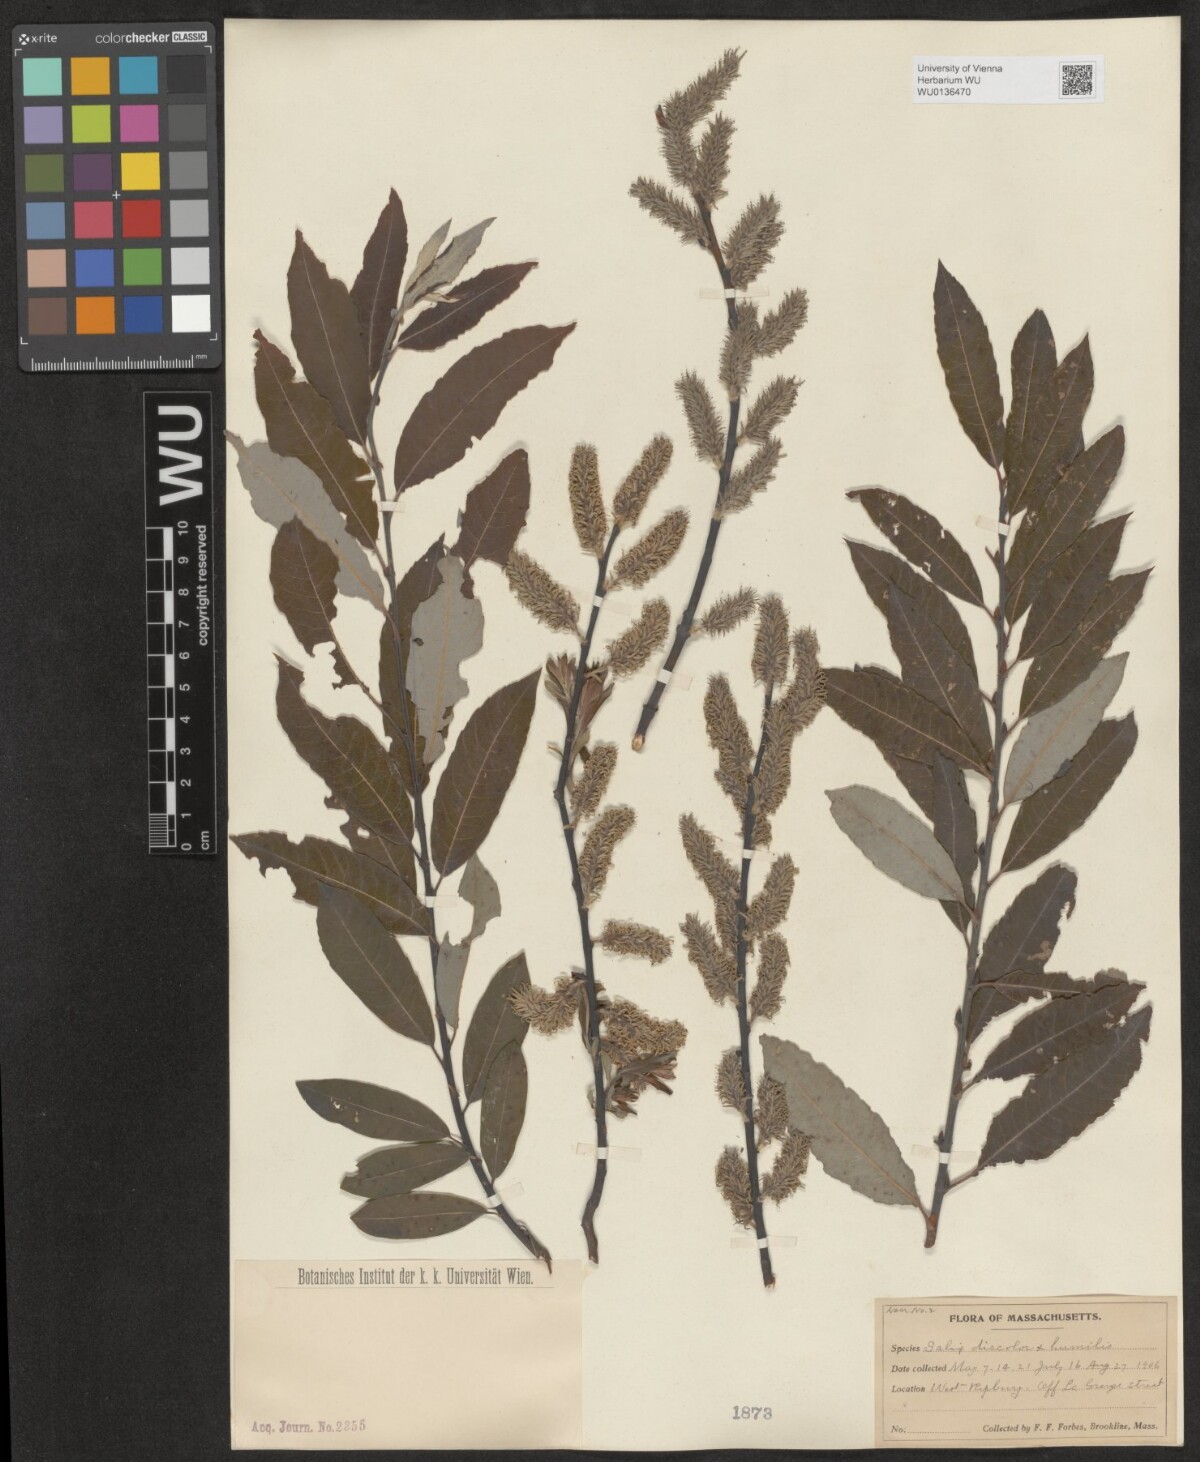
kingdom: Plantae
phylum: Tracheophyta
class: Magnoliopsida
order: Malpighiales
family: Salicaceae
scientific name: Salicaceae
